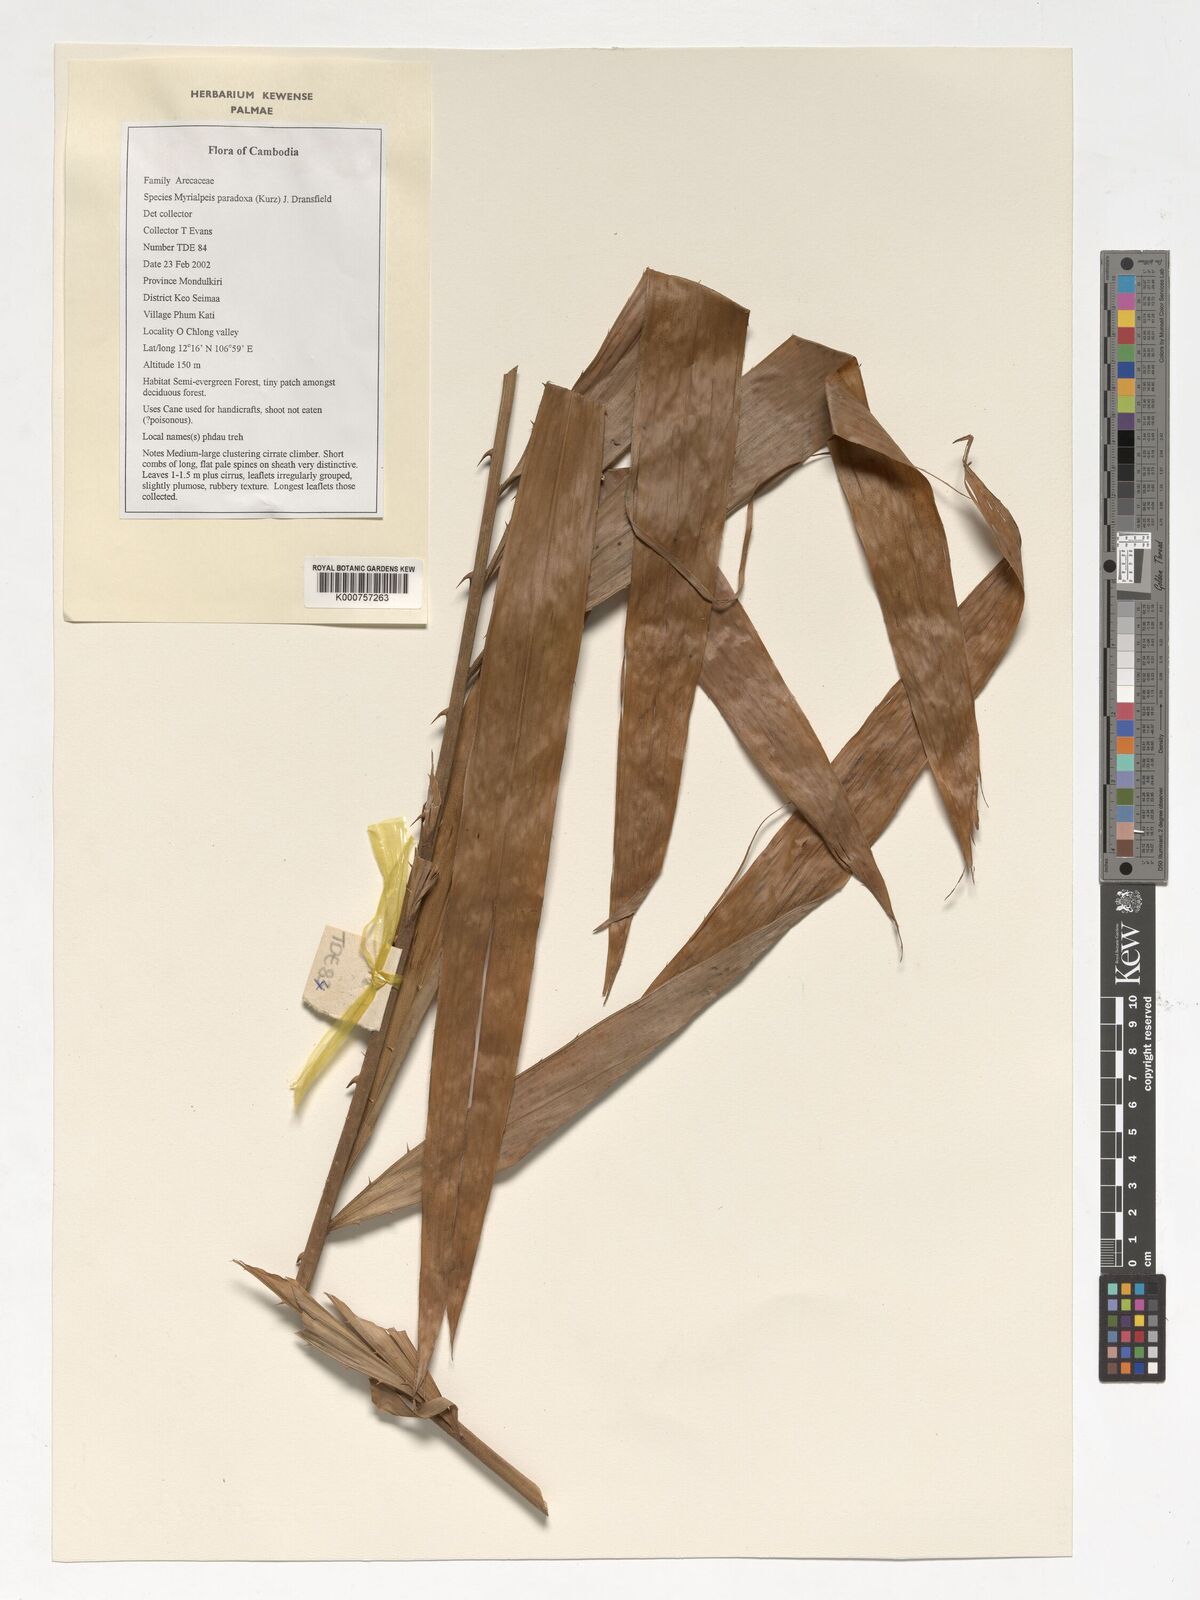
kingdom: Plantae
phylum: Tracheophyta
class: Liliopsida
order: Arecales
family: Arecaceae
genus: Myrialepis
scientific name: Myrialepis paradoxa
